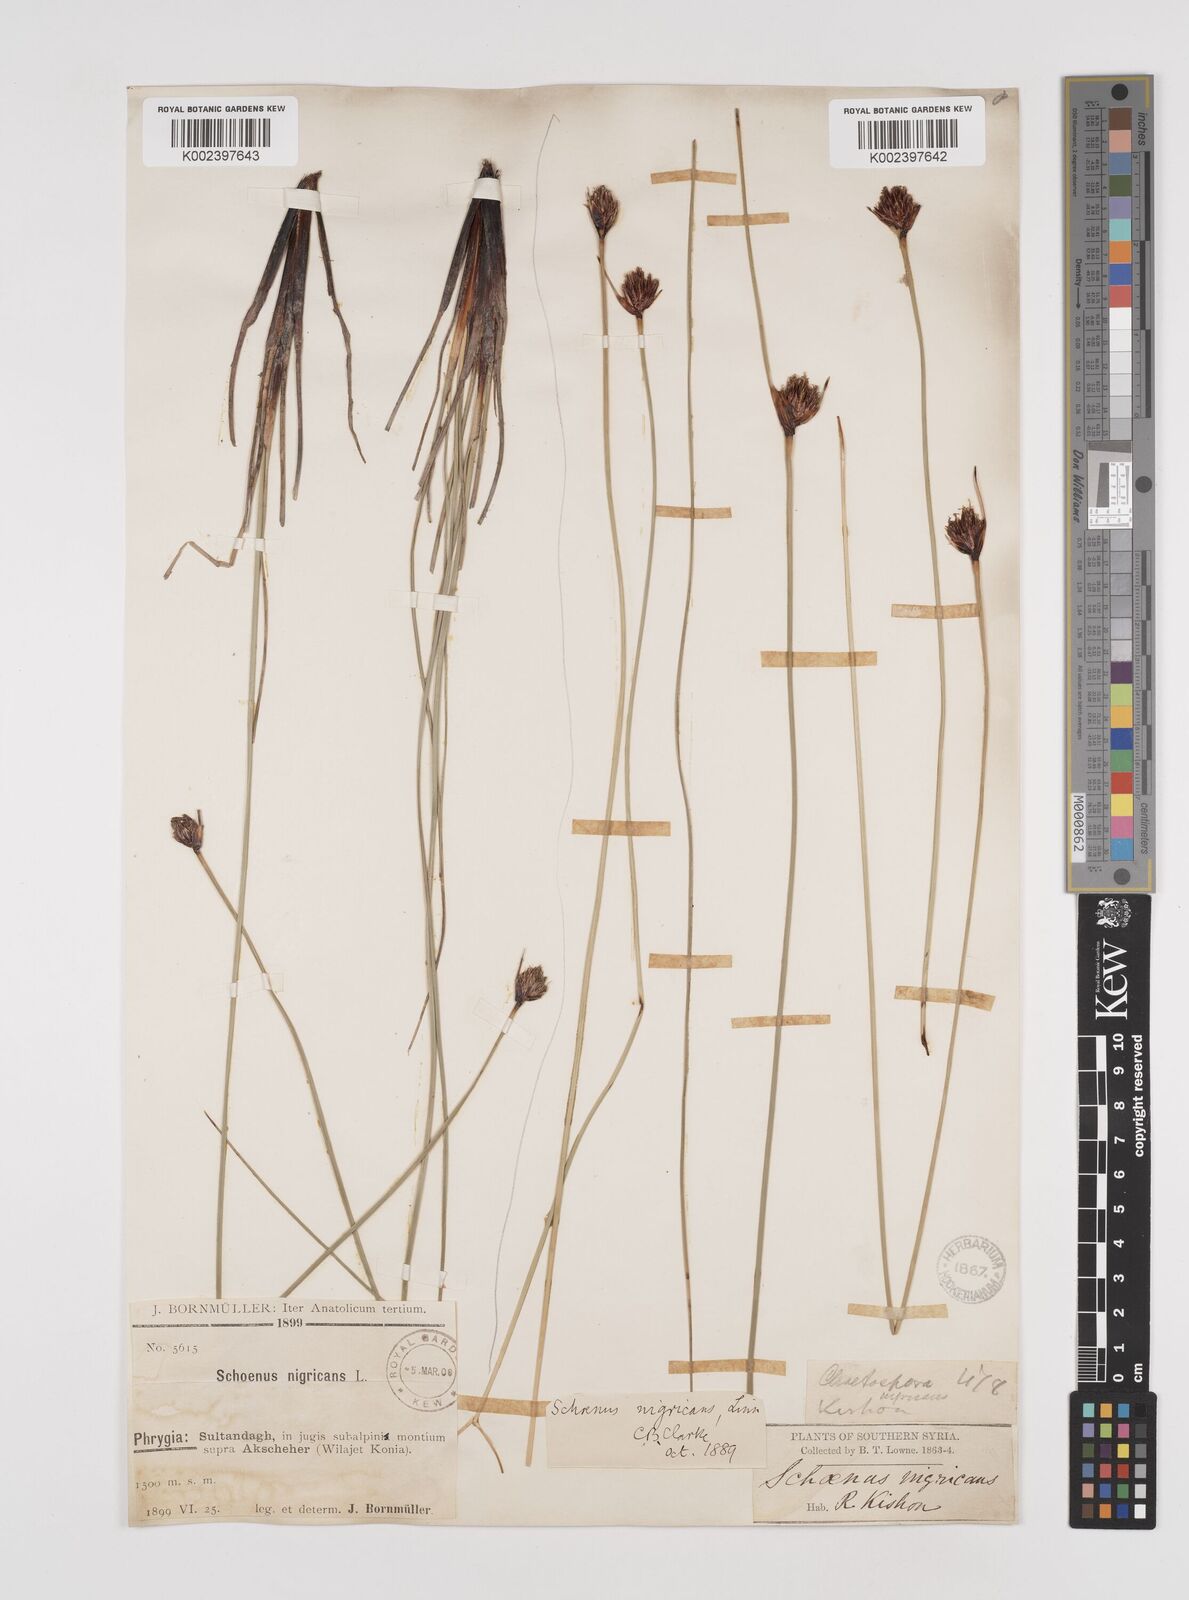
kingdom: Plantae
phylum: Tracheophyta
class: Liliopsida
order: Poales
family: Cyperaceae
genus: Schoenus
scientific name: Schoenus nigricans
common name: Black bog-rush
